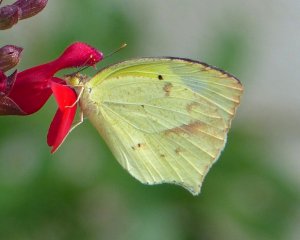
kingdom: Animalia
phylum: Arthropoda
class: Insecta
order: Lepidoptera
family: Pieridae
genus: Eurema
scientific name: Eurema mexicana
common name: Mexican Yellow
